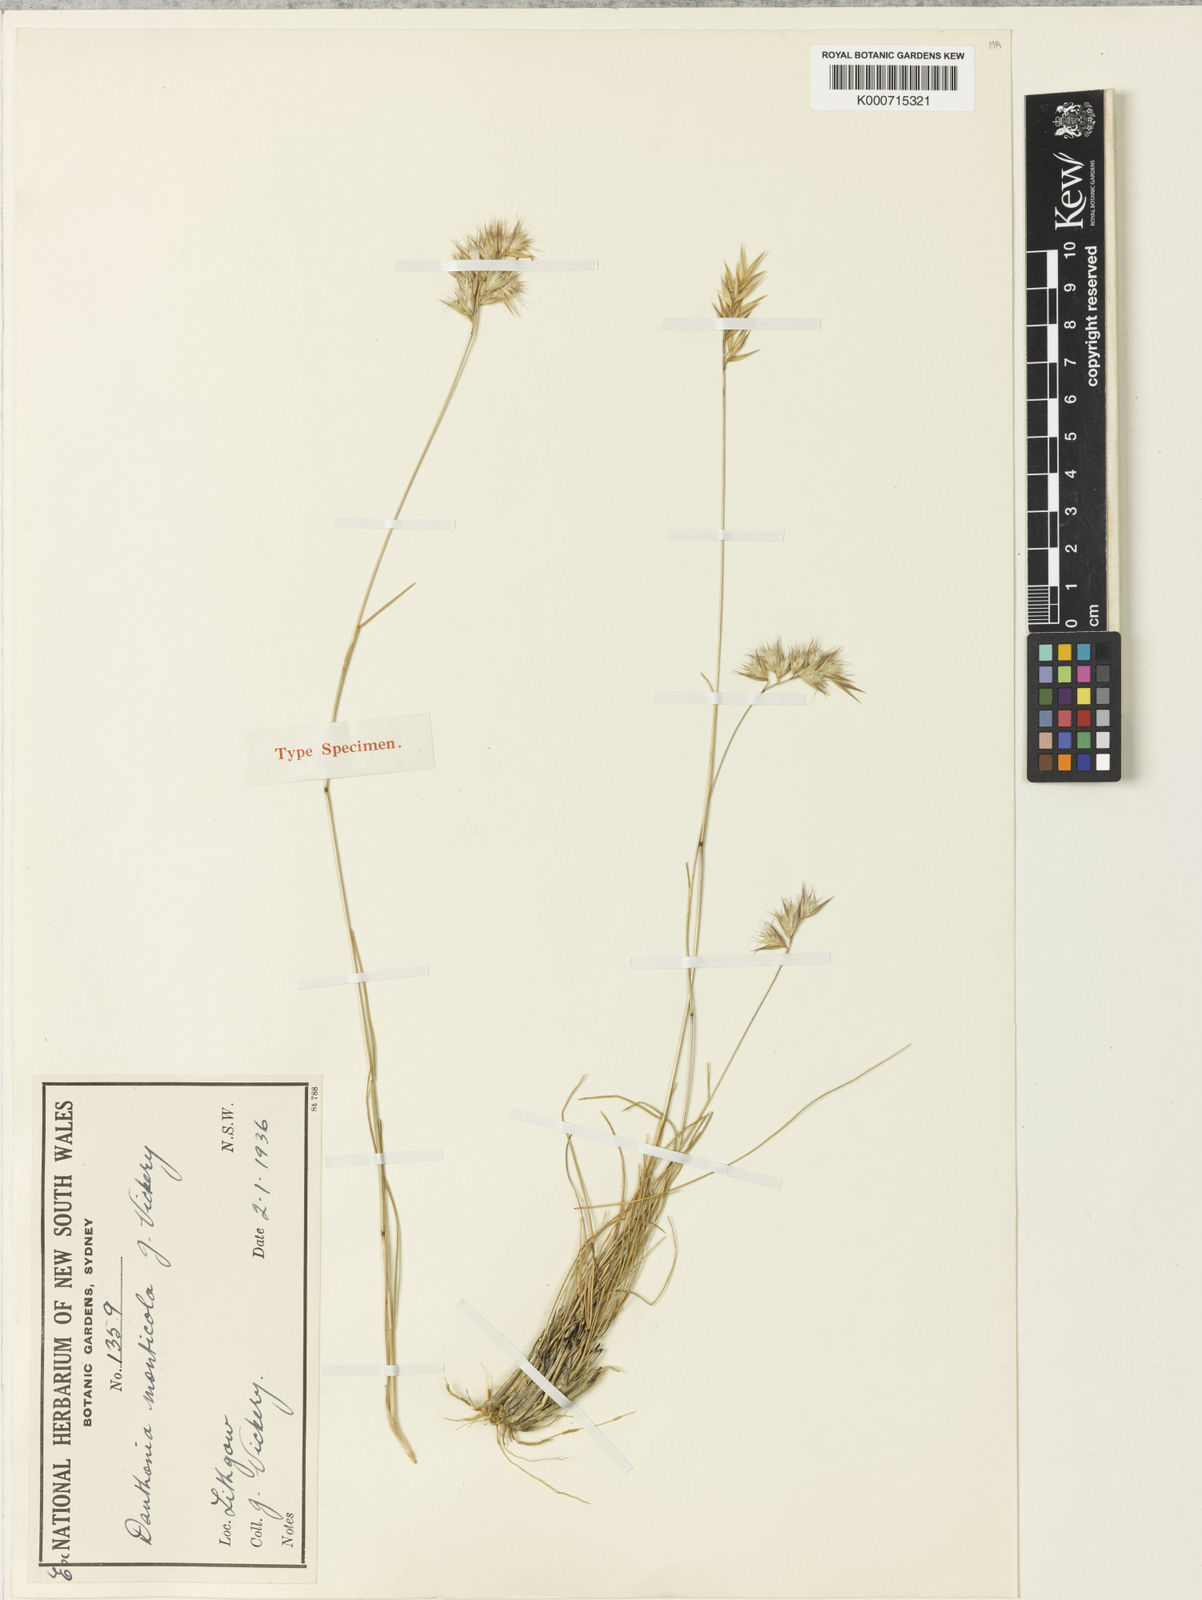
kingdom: Plantae
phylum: Tracheophyta
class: Liliopsida
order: Poales
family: Poaceae
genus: Rytidosperma
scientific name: Rytidosperma monticola
